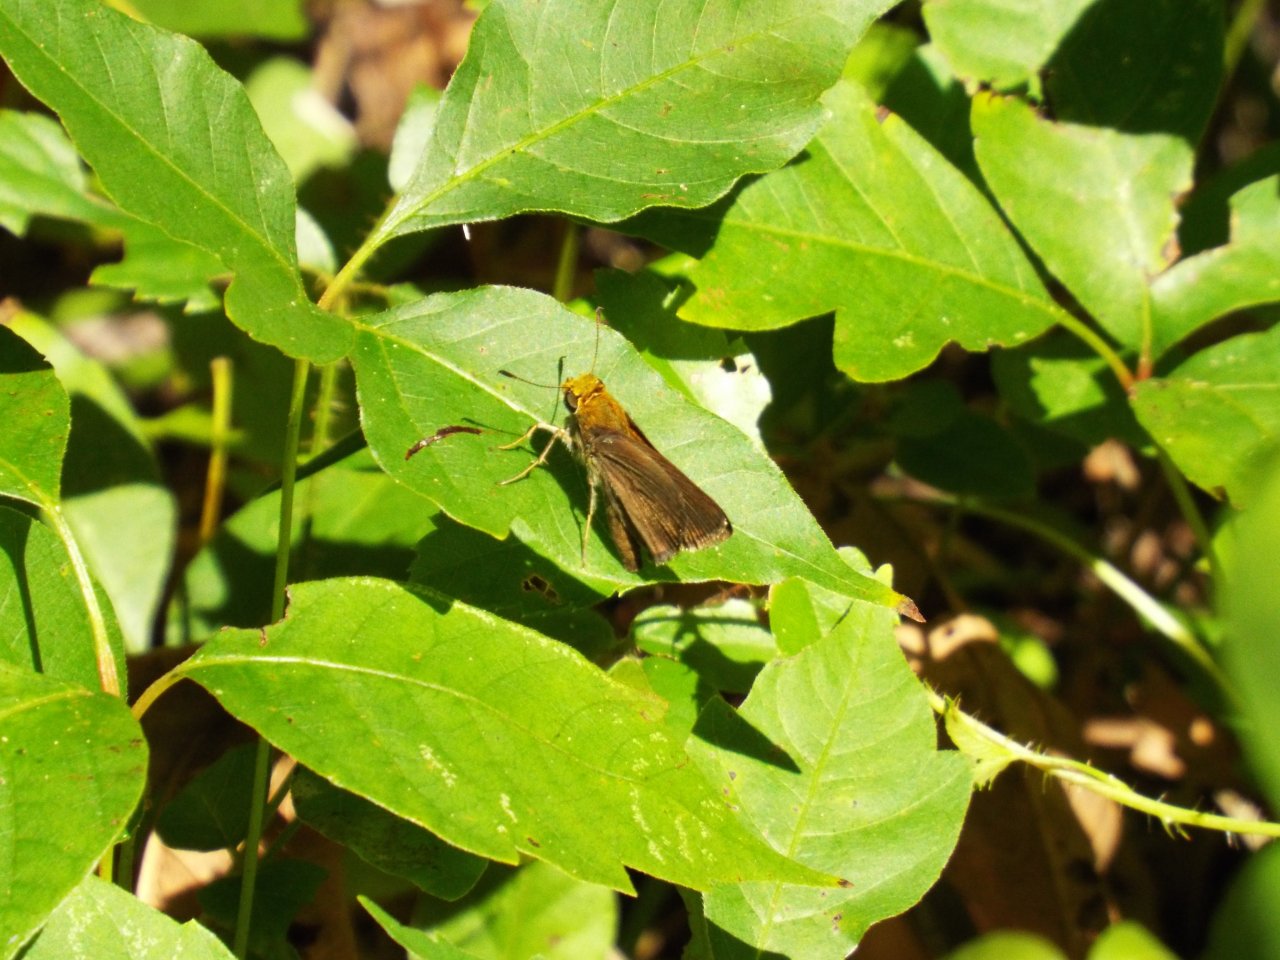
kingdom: Animalia
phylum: Arthropoda
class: Insecta
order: Lepidoptera
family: Hesperiidae
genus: Euphyes
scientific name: Euphyes vestris
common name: Dun Skipper
